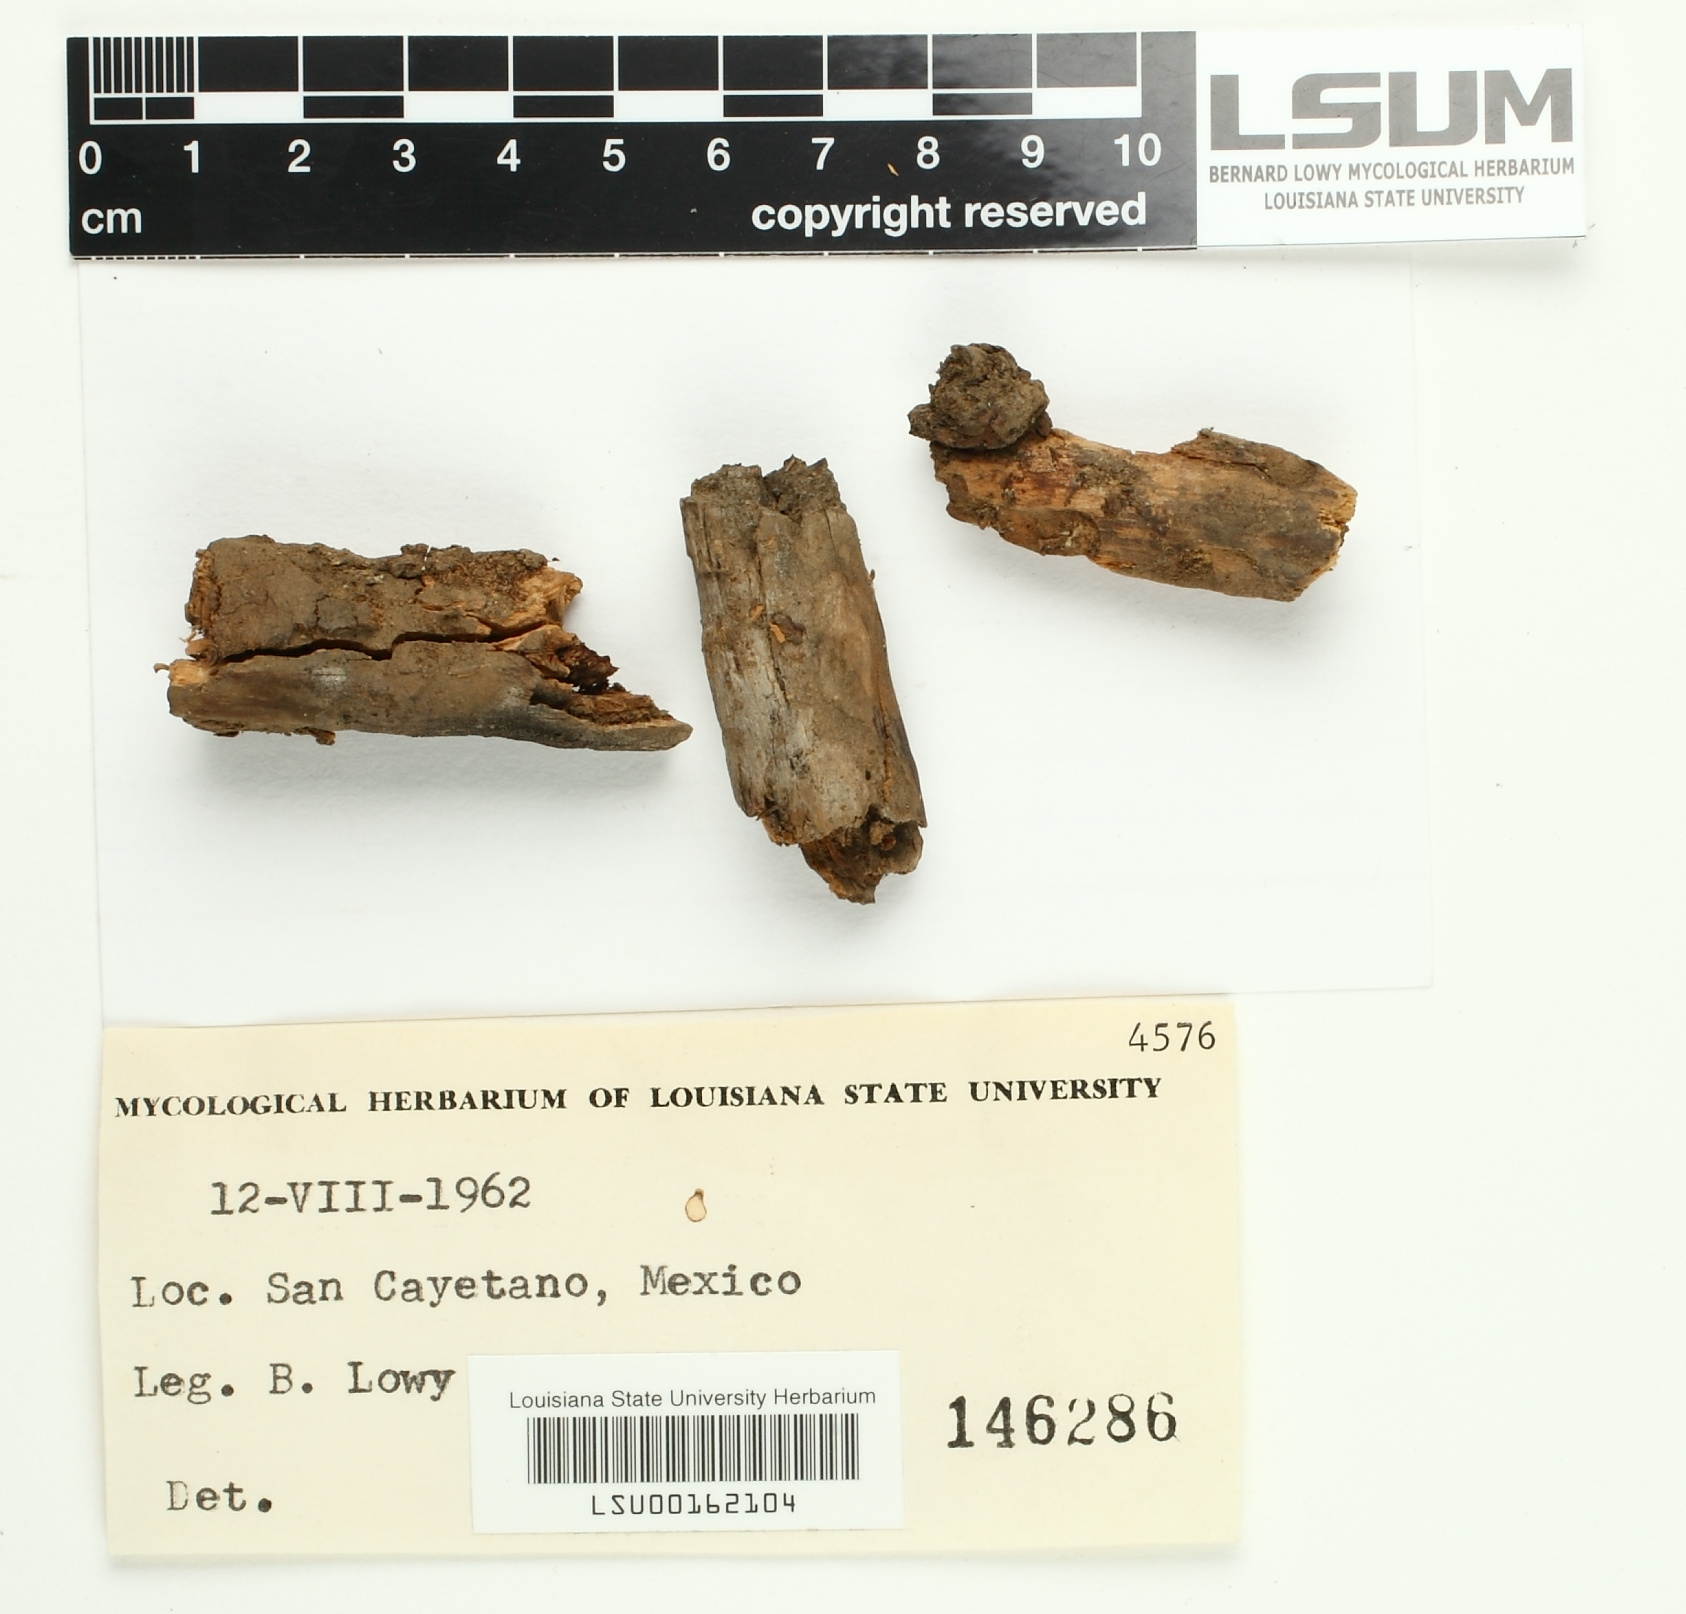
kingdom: Fungi
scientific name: Fungi
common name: Fungi
